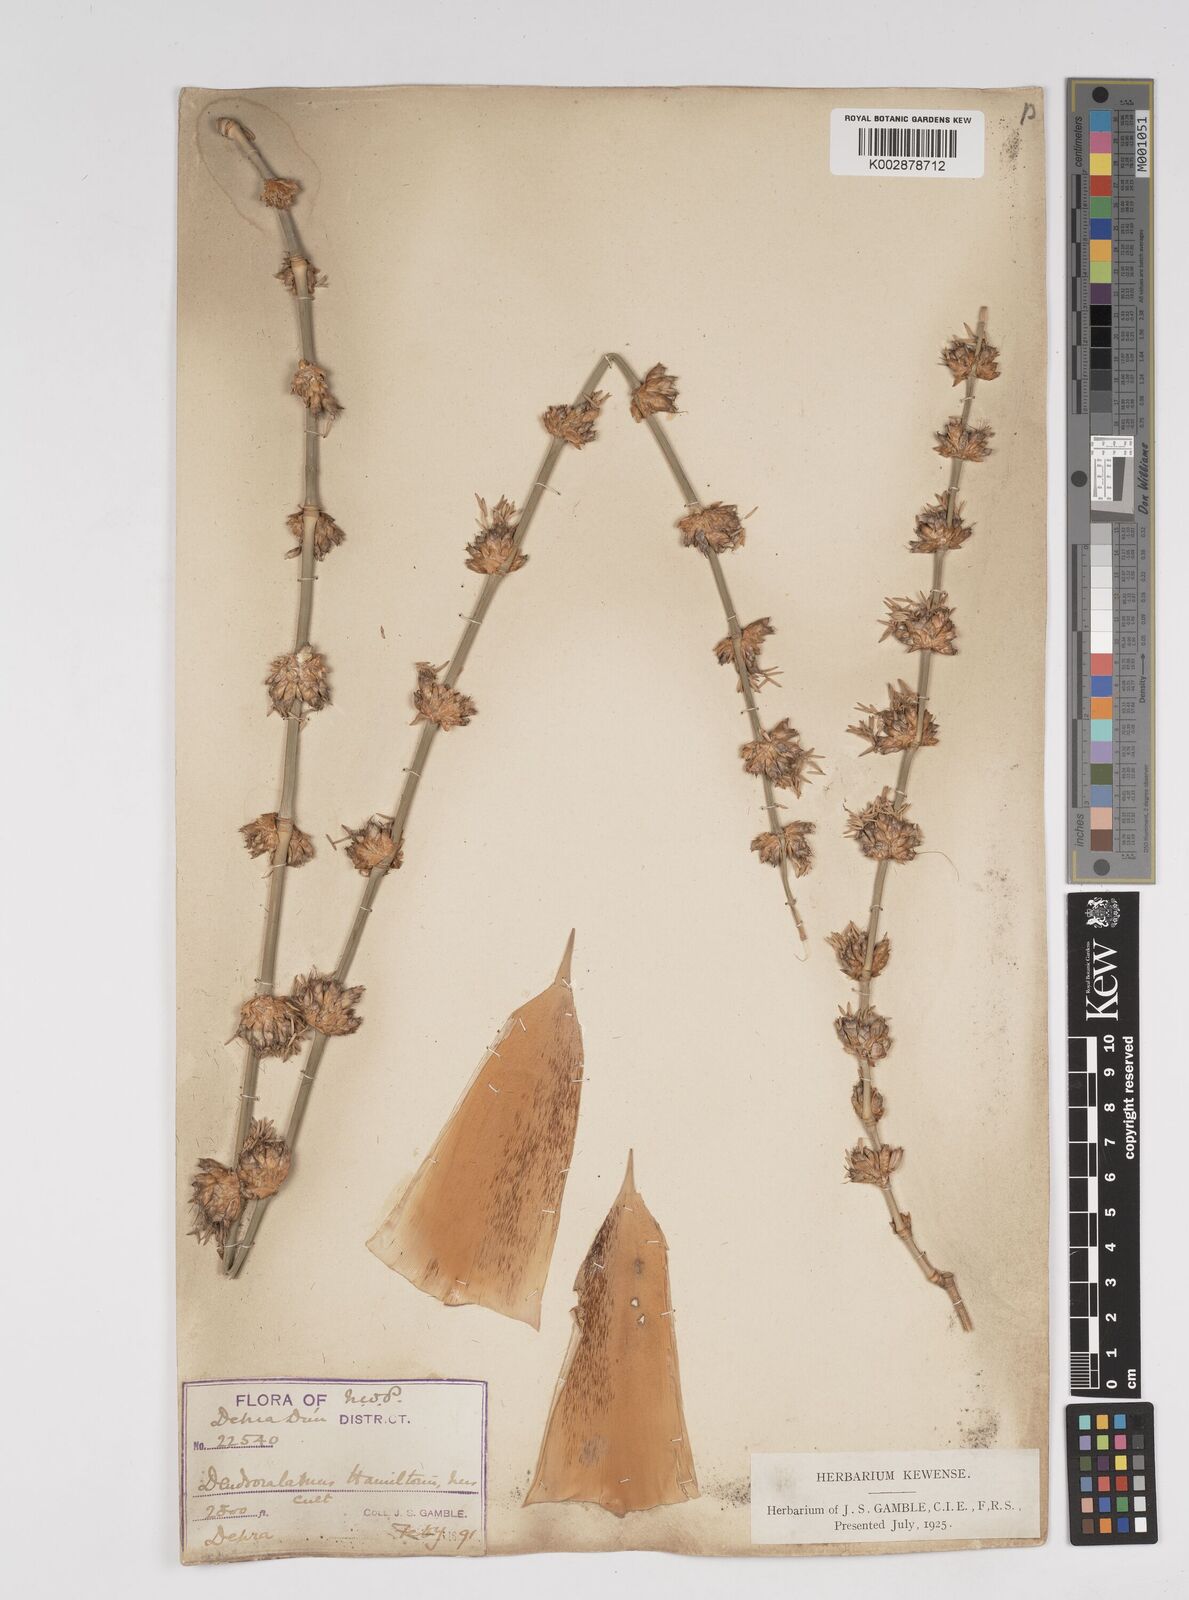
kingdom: Plantae
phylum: Tracheophyta
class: Liliopsida
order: Poales
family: Poaceae
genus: Dendrocalamus
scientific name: Dendrocalamus hamiltonii
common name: Tama bamboo
